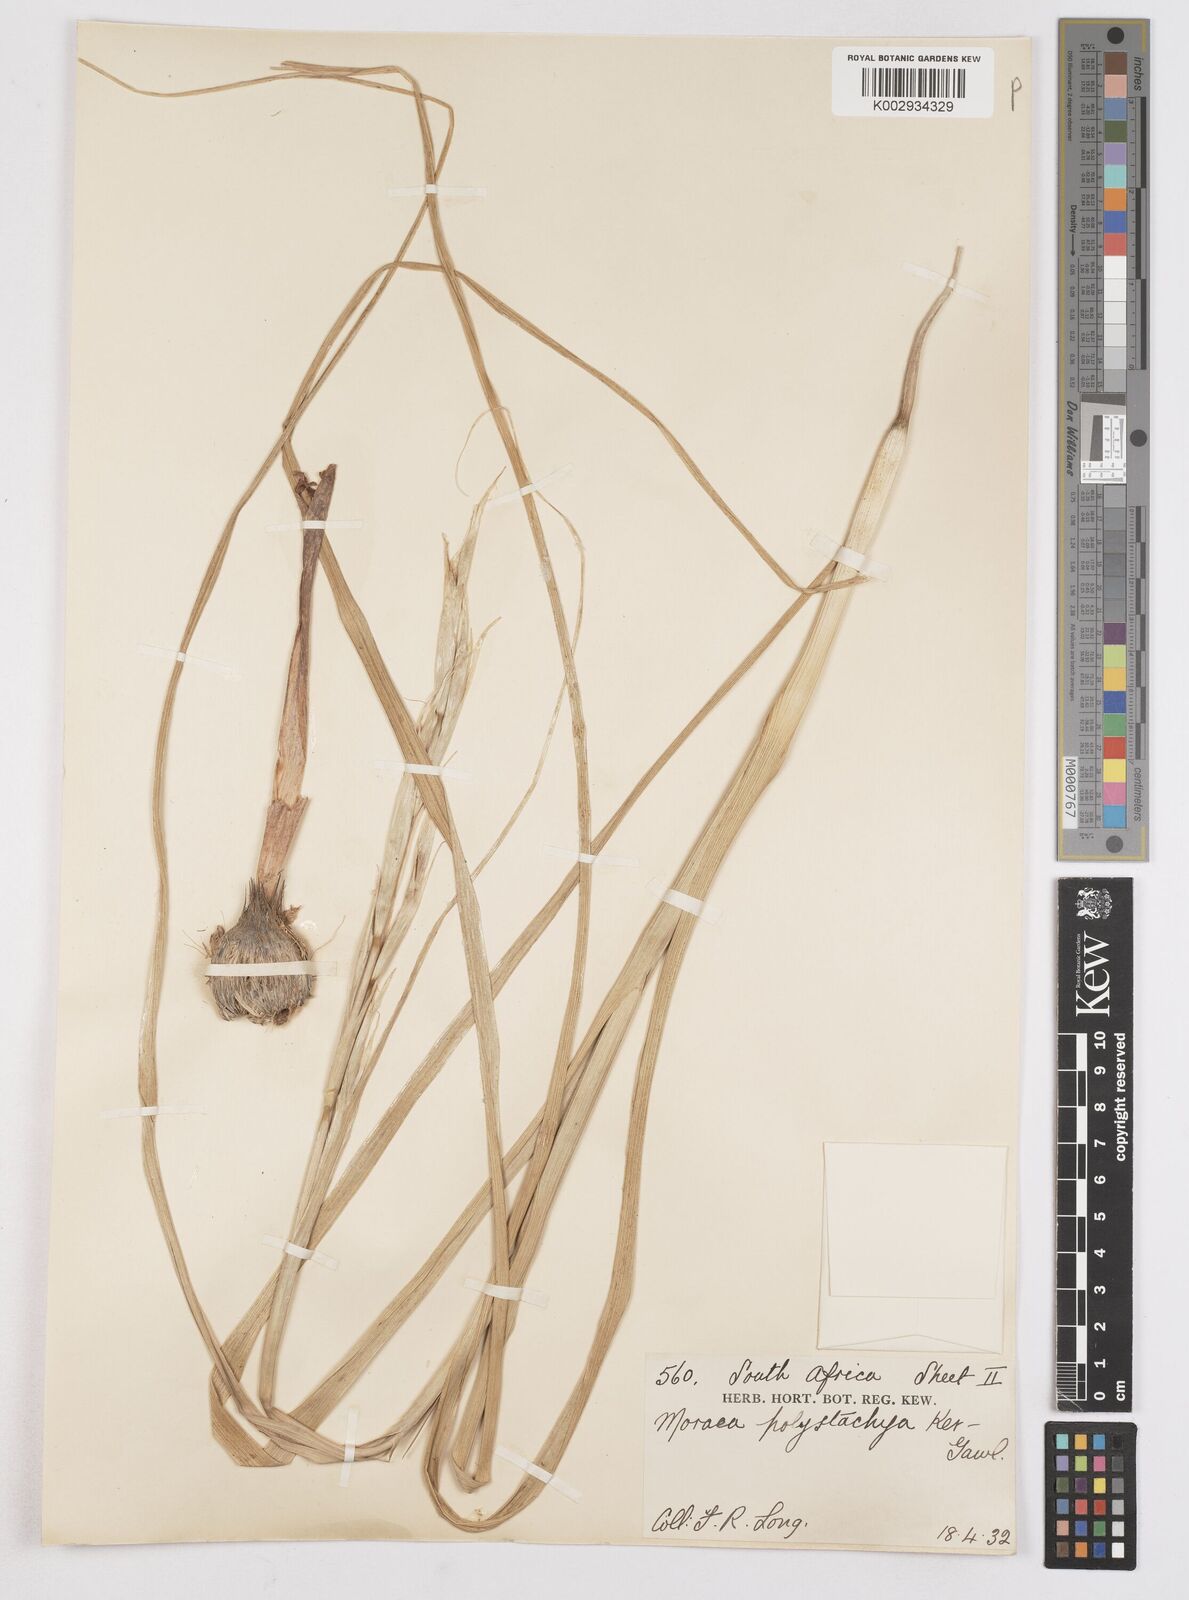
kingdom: Plantae
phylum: Tracheophyta
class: Liliopsida
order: Asparagales
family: Iridaceae
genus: Moraea
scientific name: Moraea polystachya
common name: Blue-tulip
